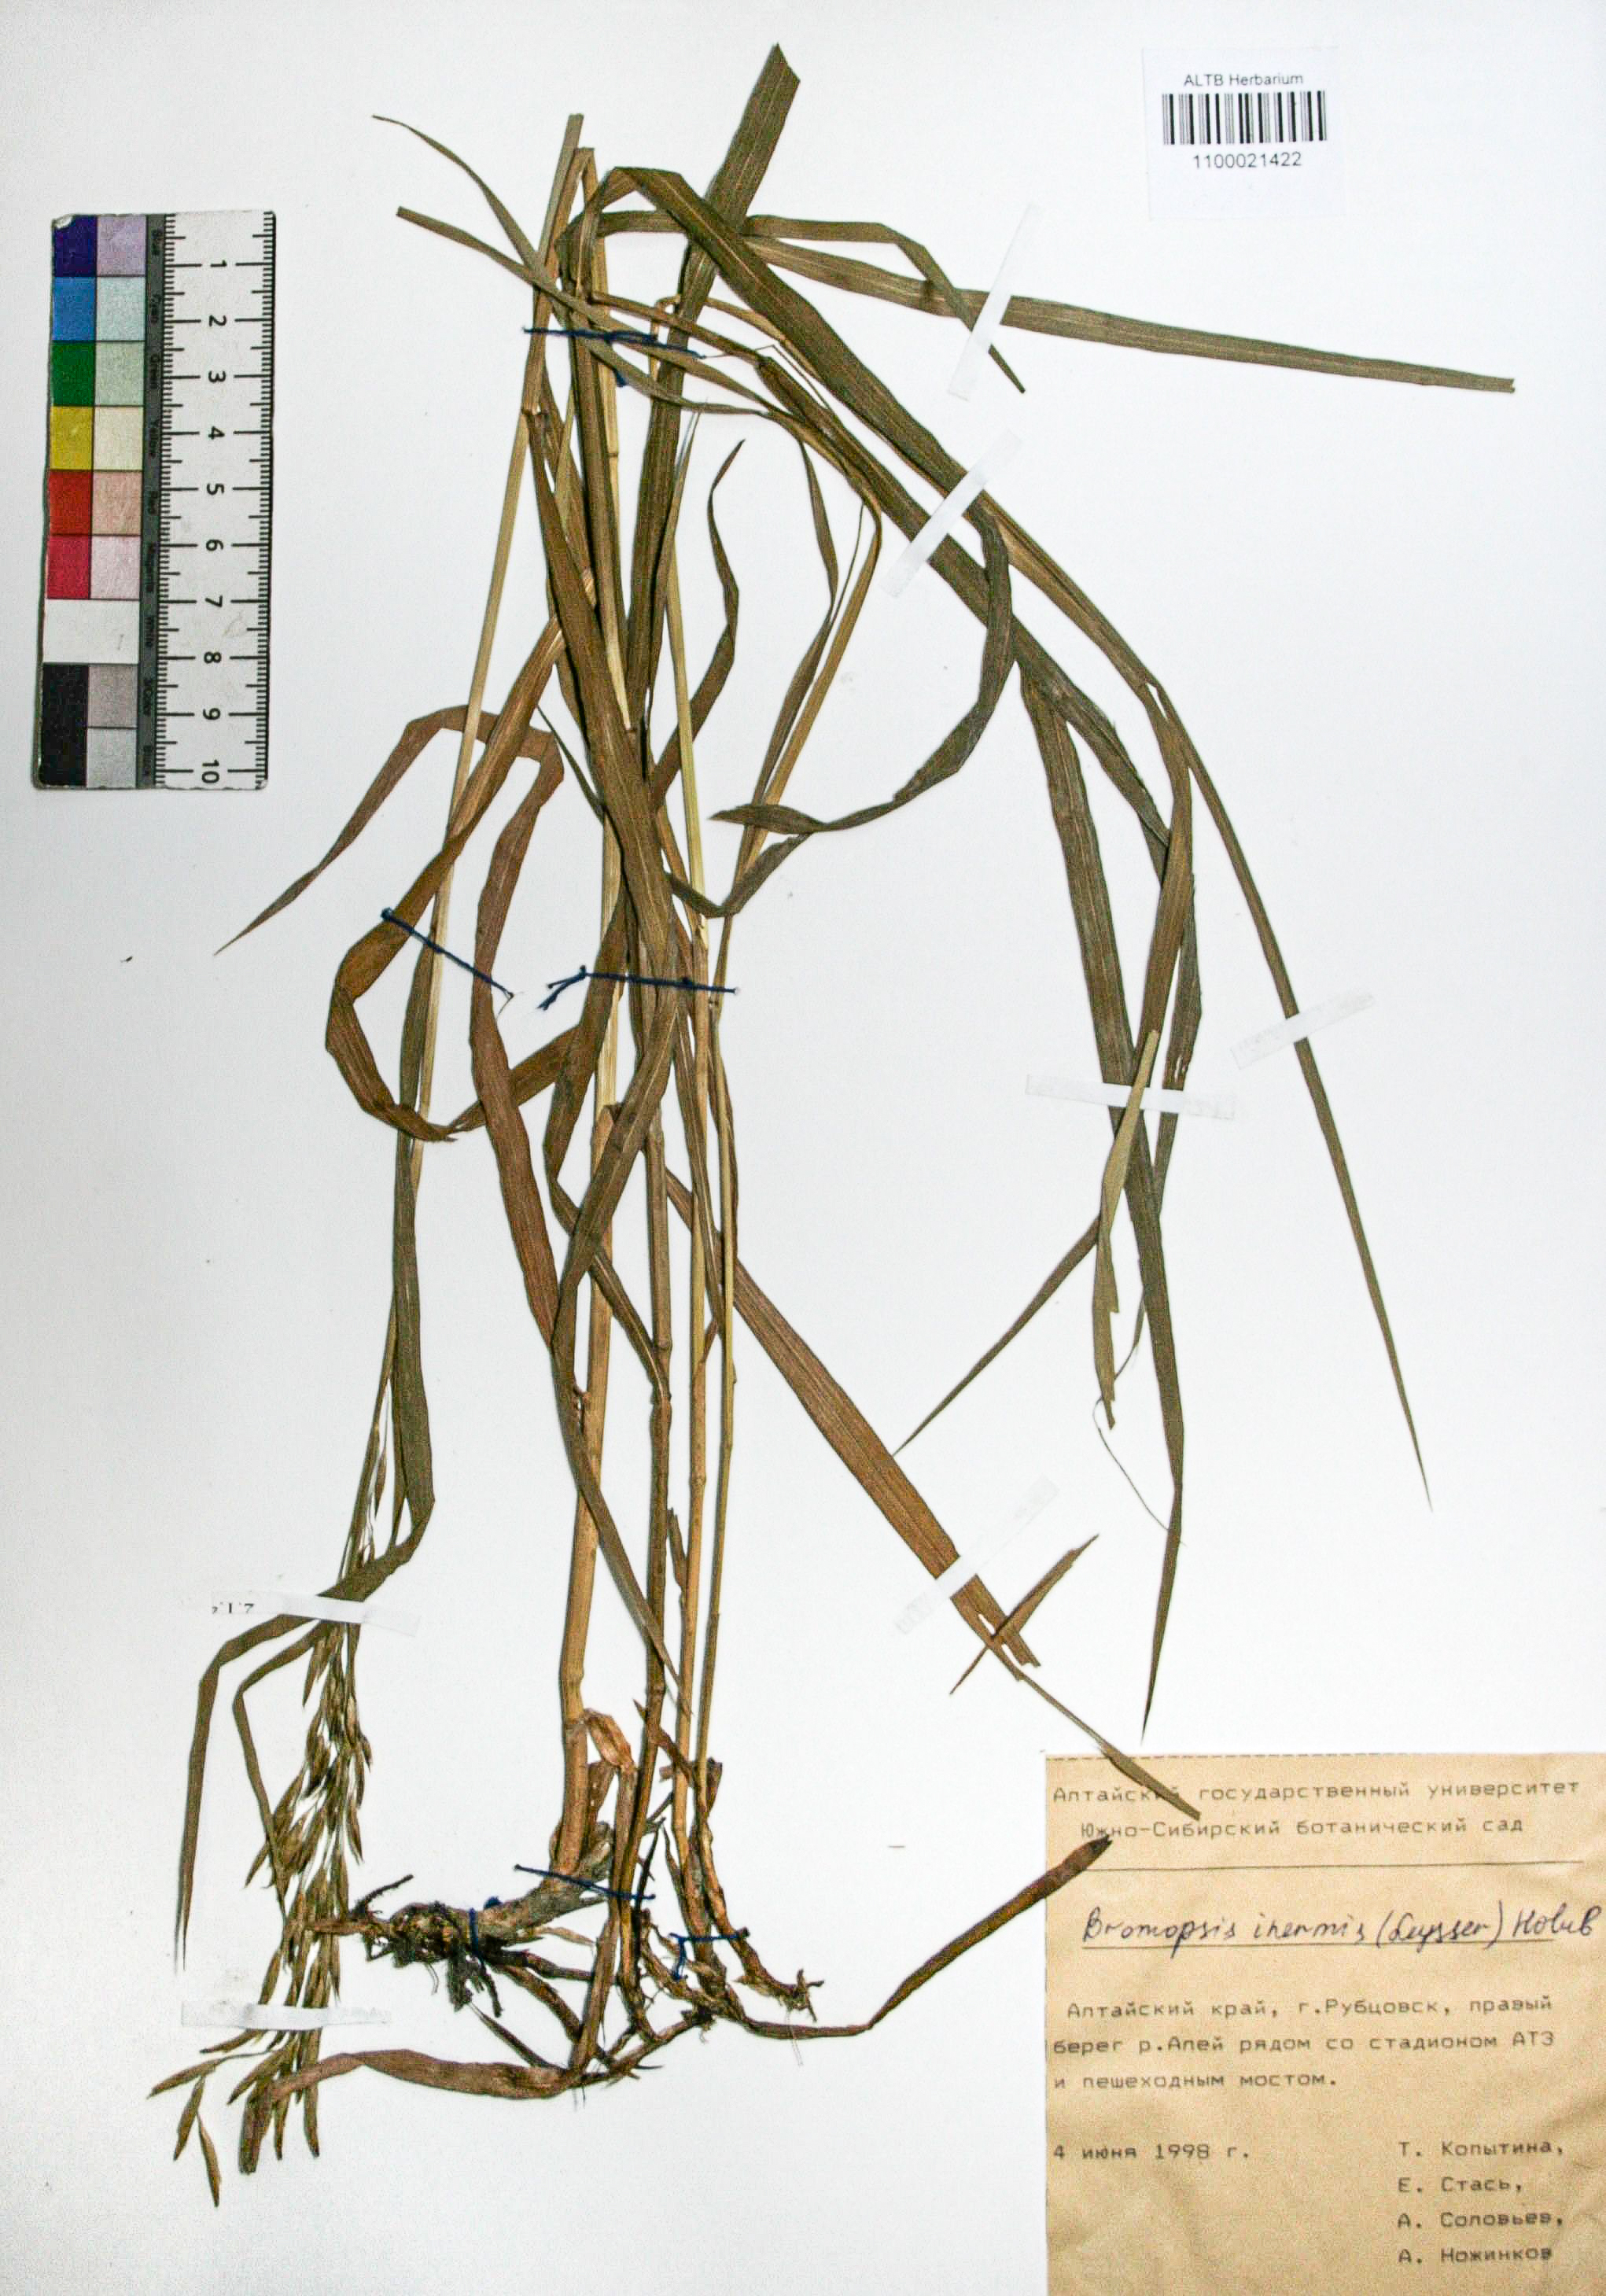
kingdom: Plantae
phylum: Tracheophyta
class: Liliopsida
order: Poales
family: Poaceae
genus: Bromus
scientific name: Bromus inermis
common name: Smooth brome
